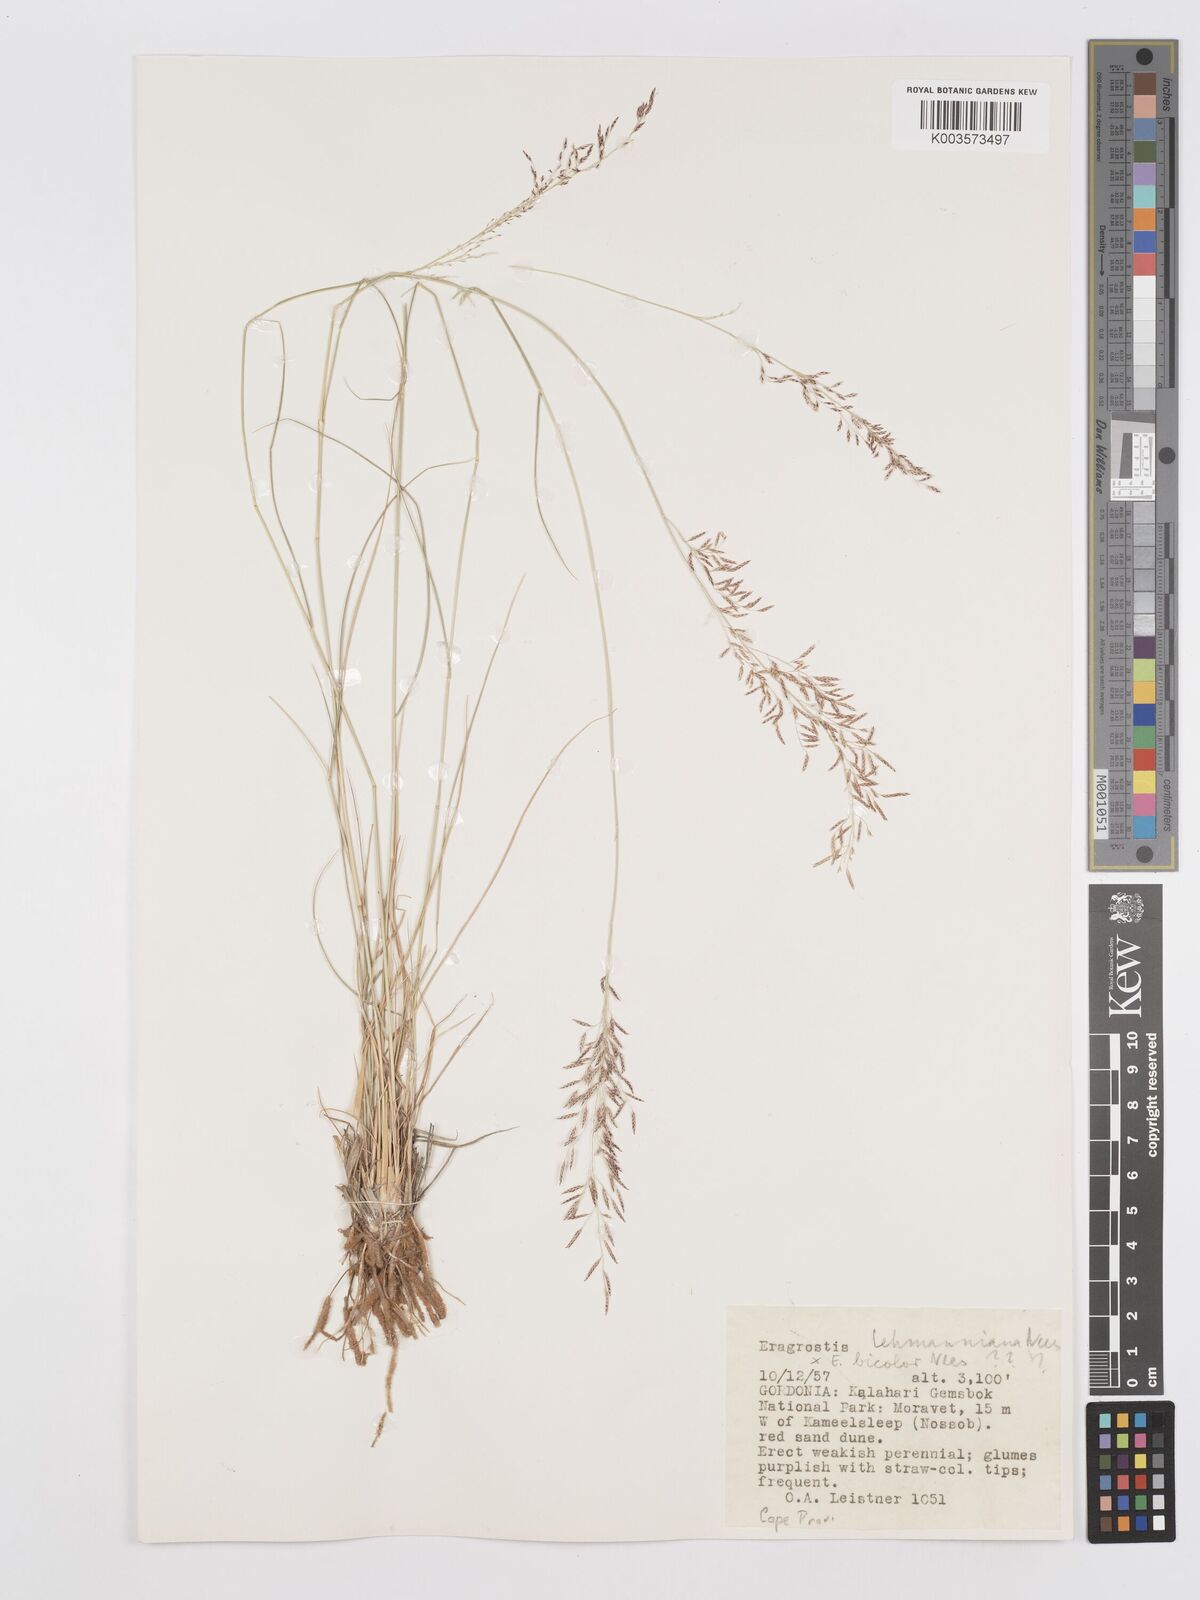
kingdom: Plantae
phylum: Tracheophyta
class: Liliopsida
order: Poales
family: Poaceae
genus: Eragrostis
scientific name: Eragrostis lehmanniana
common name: Lehmann lovegrass
